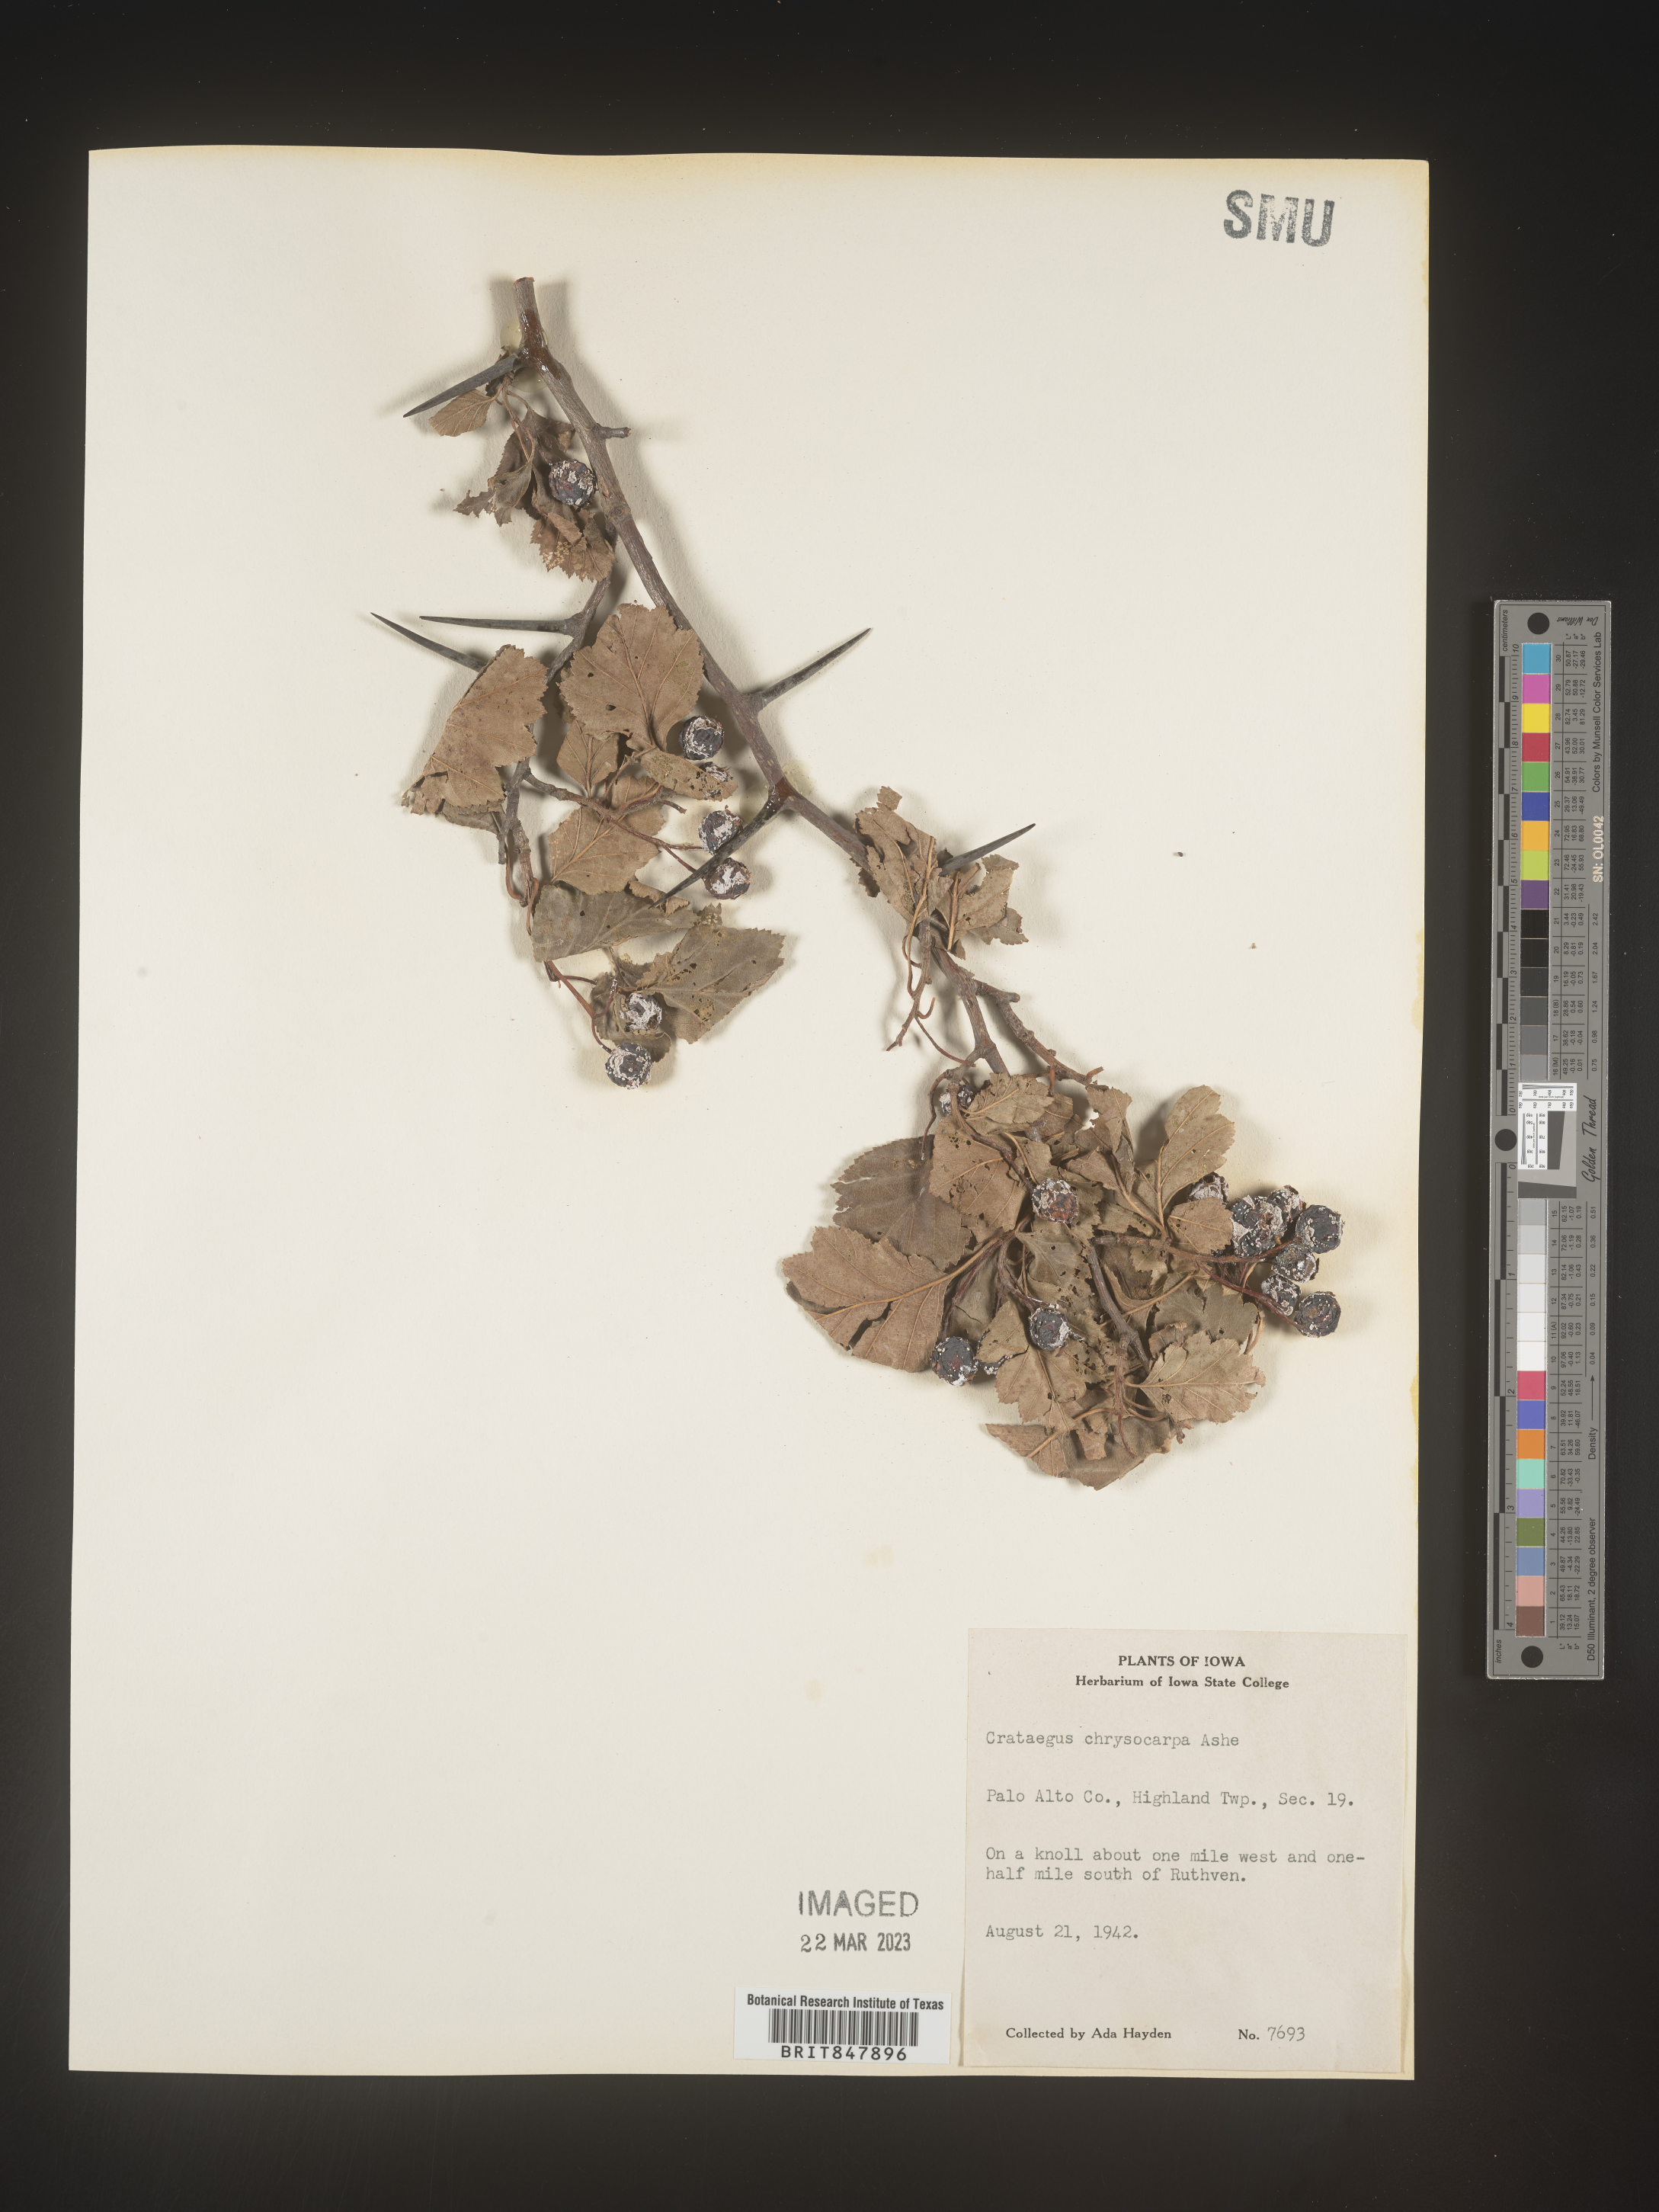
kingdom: Plantae
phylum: Tracheophyta
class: Magnoliopsida
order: Rosales
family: Rosaceae
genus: Crataegus
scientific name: Crataegus chrysocarpa
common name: Fire-berry hawthorn
